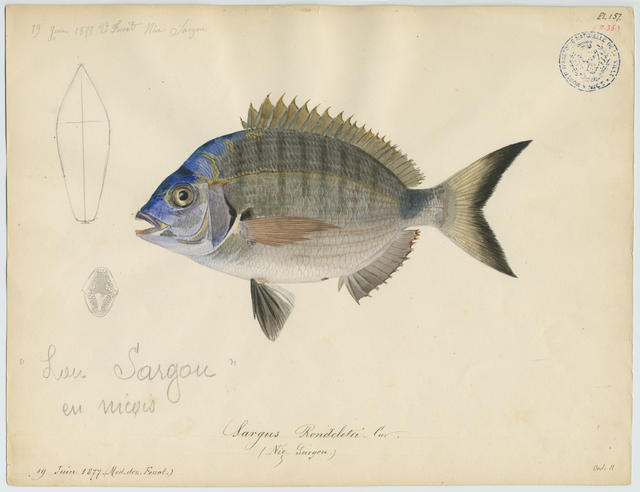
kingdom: Animalia
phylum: Chordata
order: Perciformes
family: Sparidae
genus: Diplodus
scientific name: Diplodus sargus
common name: White seabream
